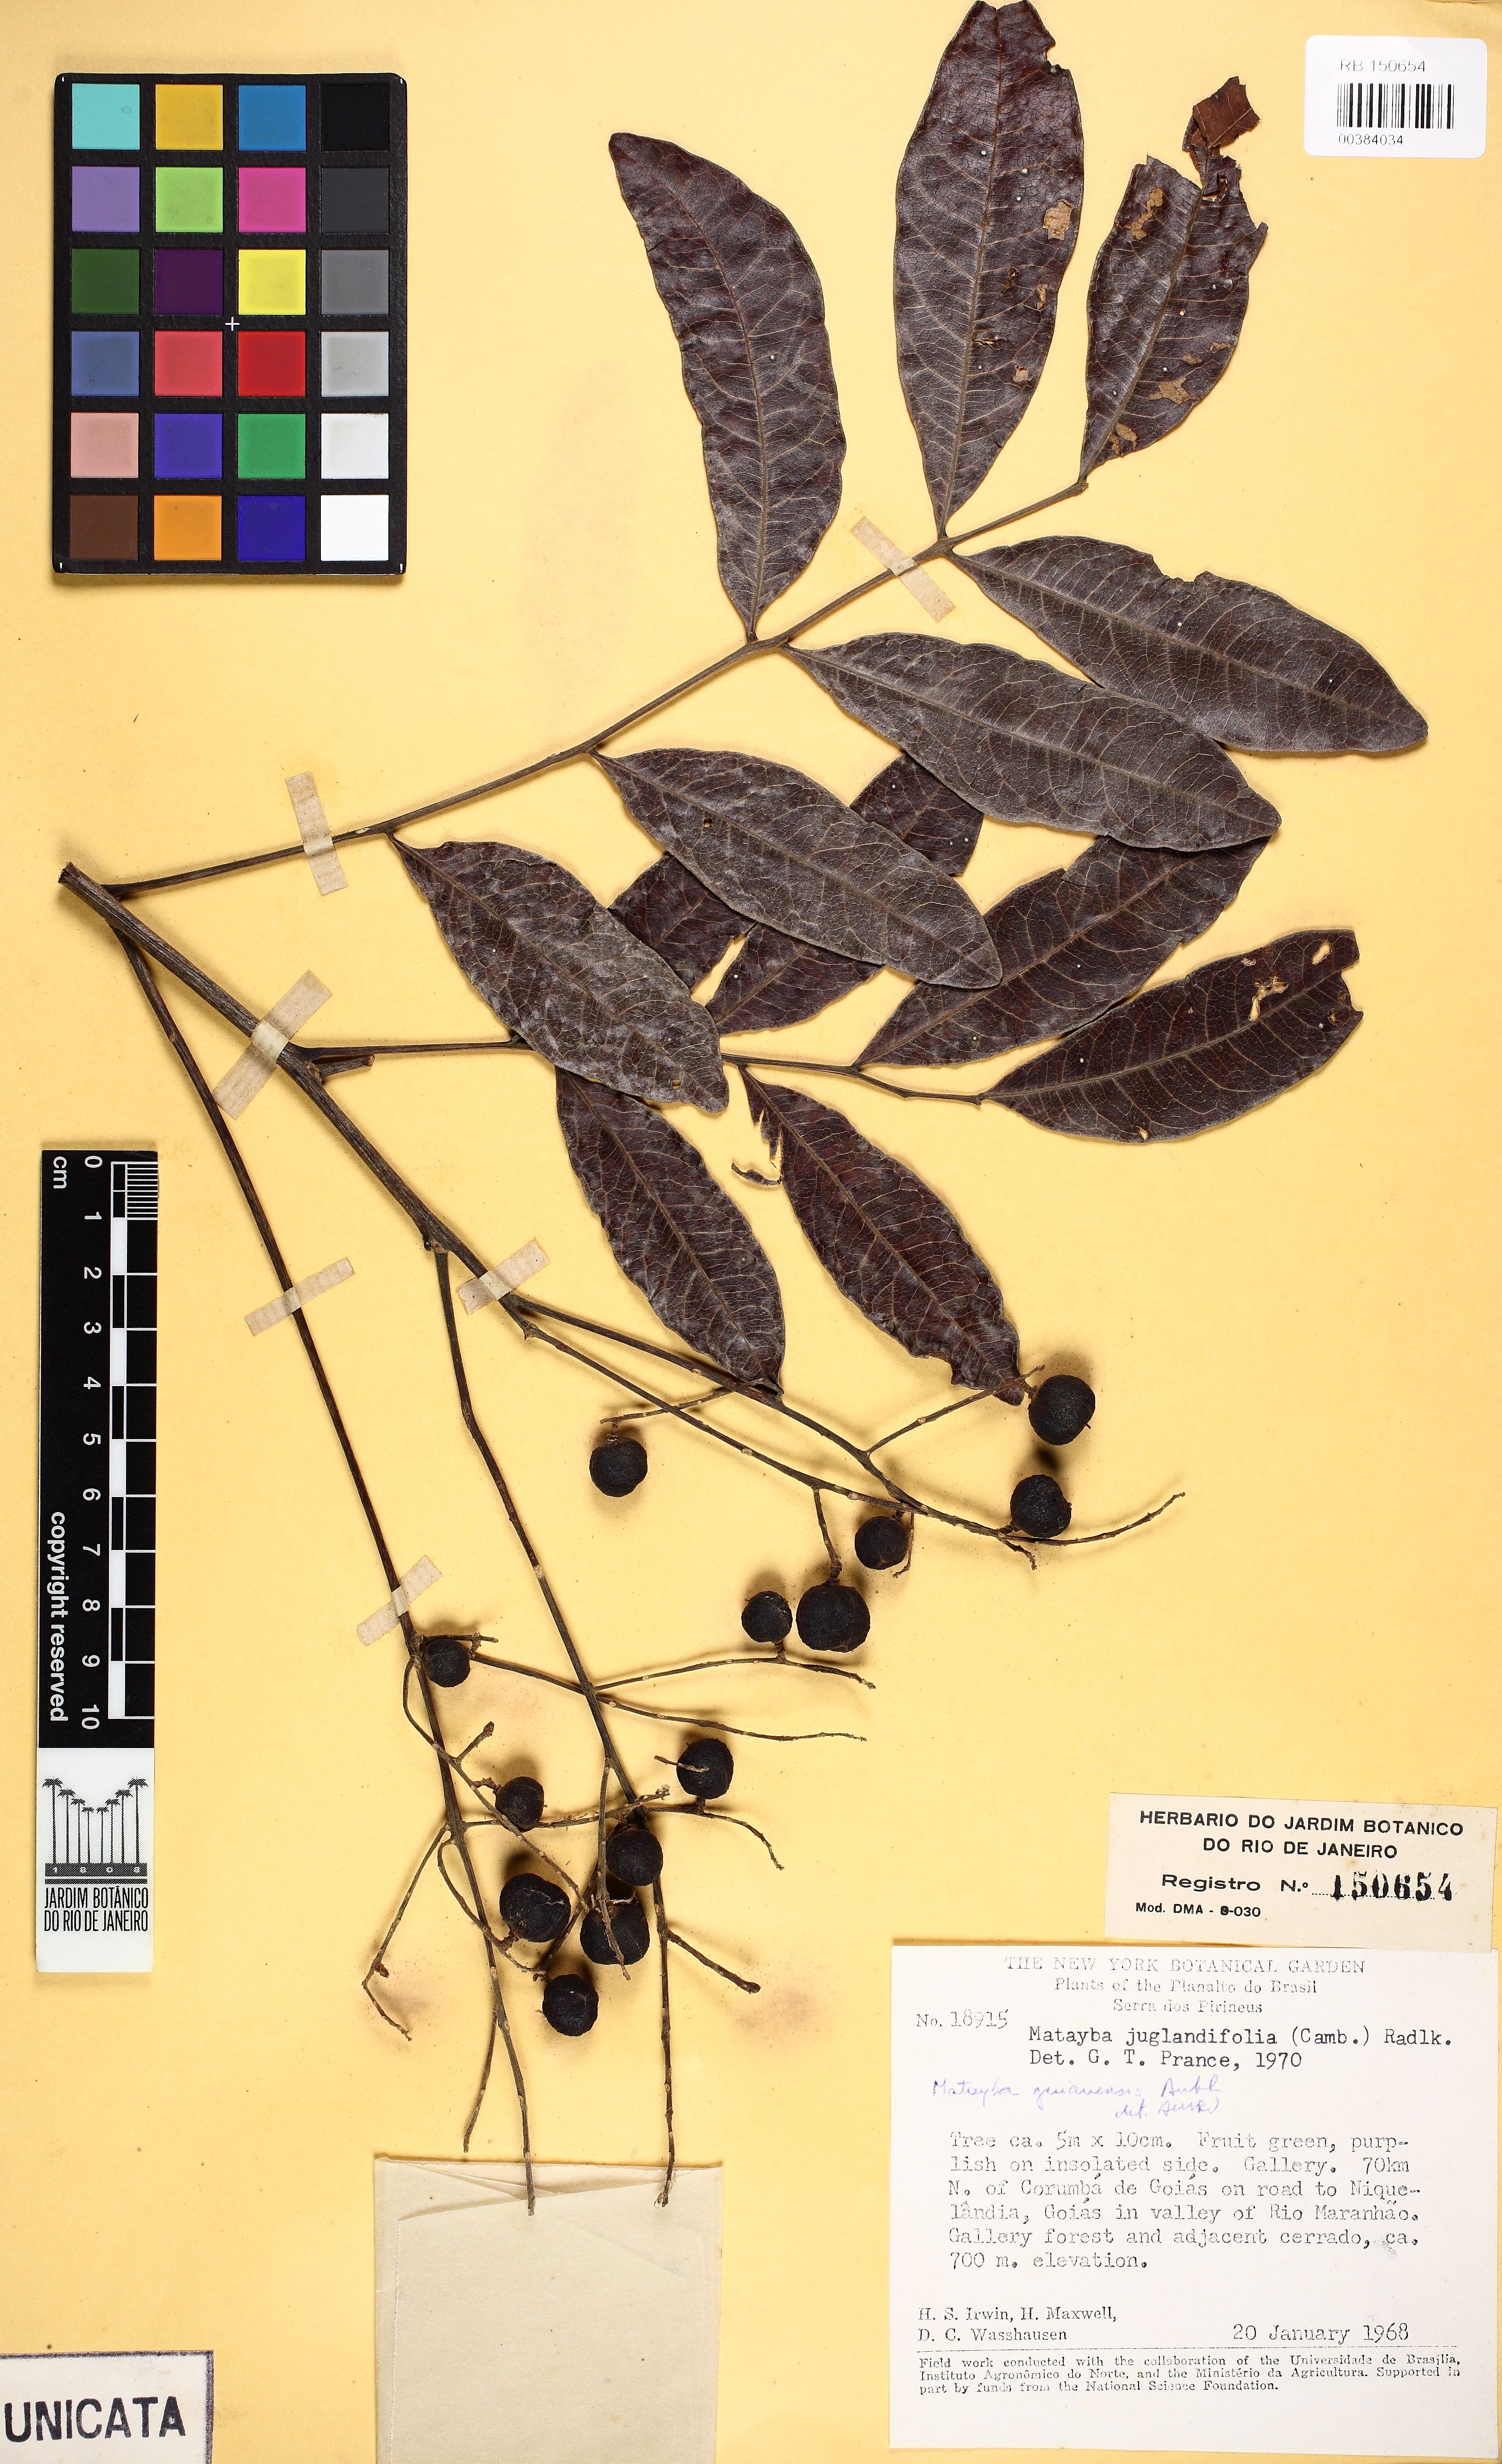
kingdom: Plantae
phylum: Tracheophyta
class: Magnoliopsida
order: Sapindales
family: Sapindaceae
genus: Matayba
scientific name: Matayba guianensis
